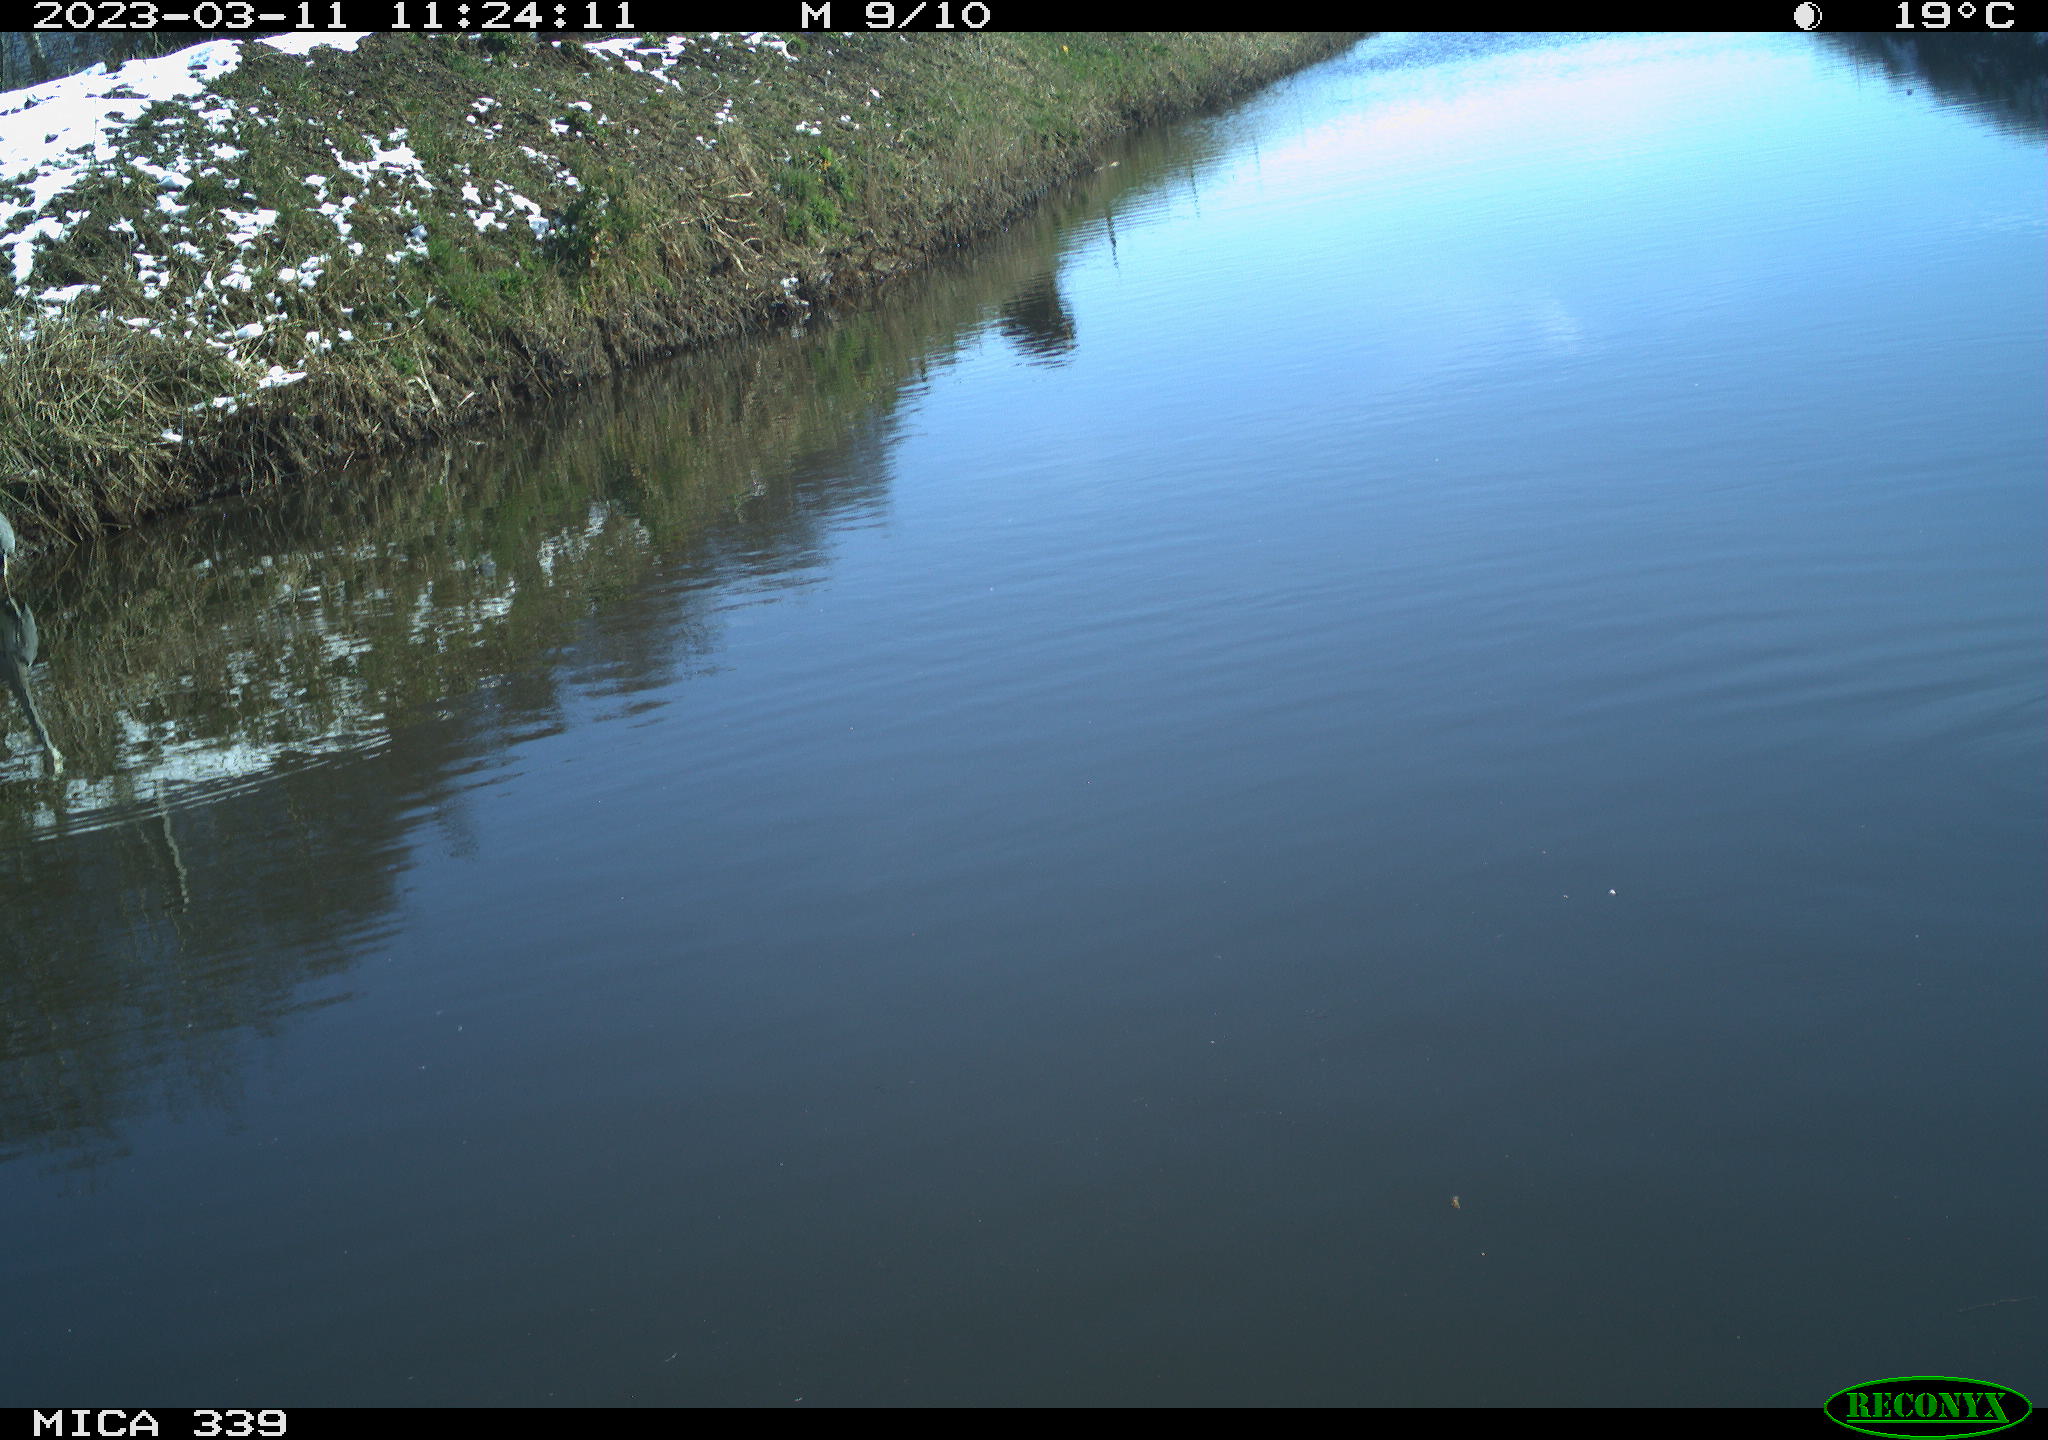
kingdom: Animalia
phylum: Chordata
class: Aves
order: Gruiformes
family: Rallidae
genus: Fulica
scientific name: Fulica atra
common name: Eurasian coot
